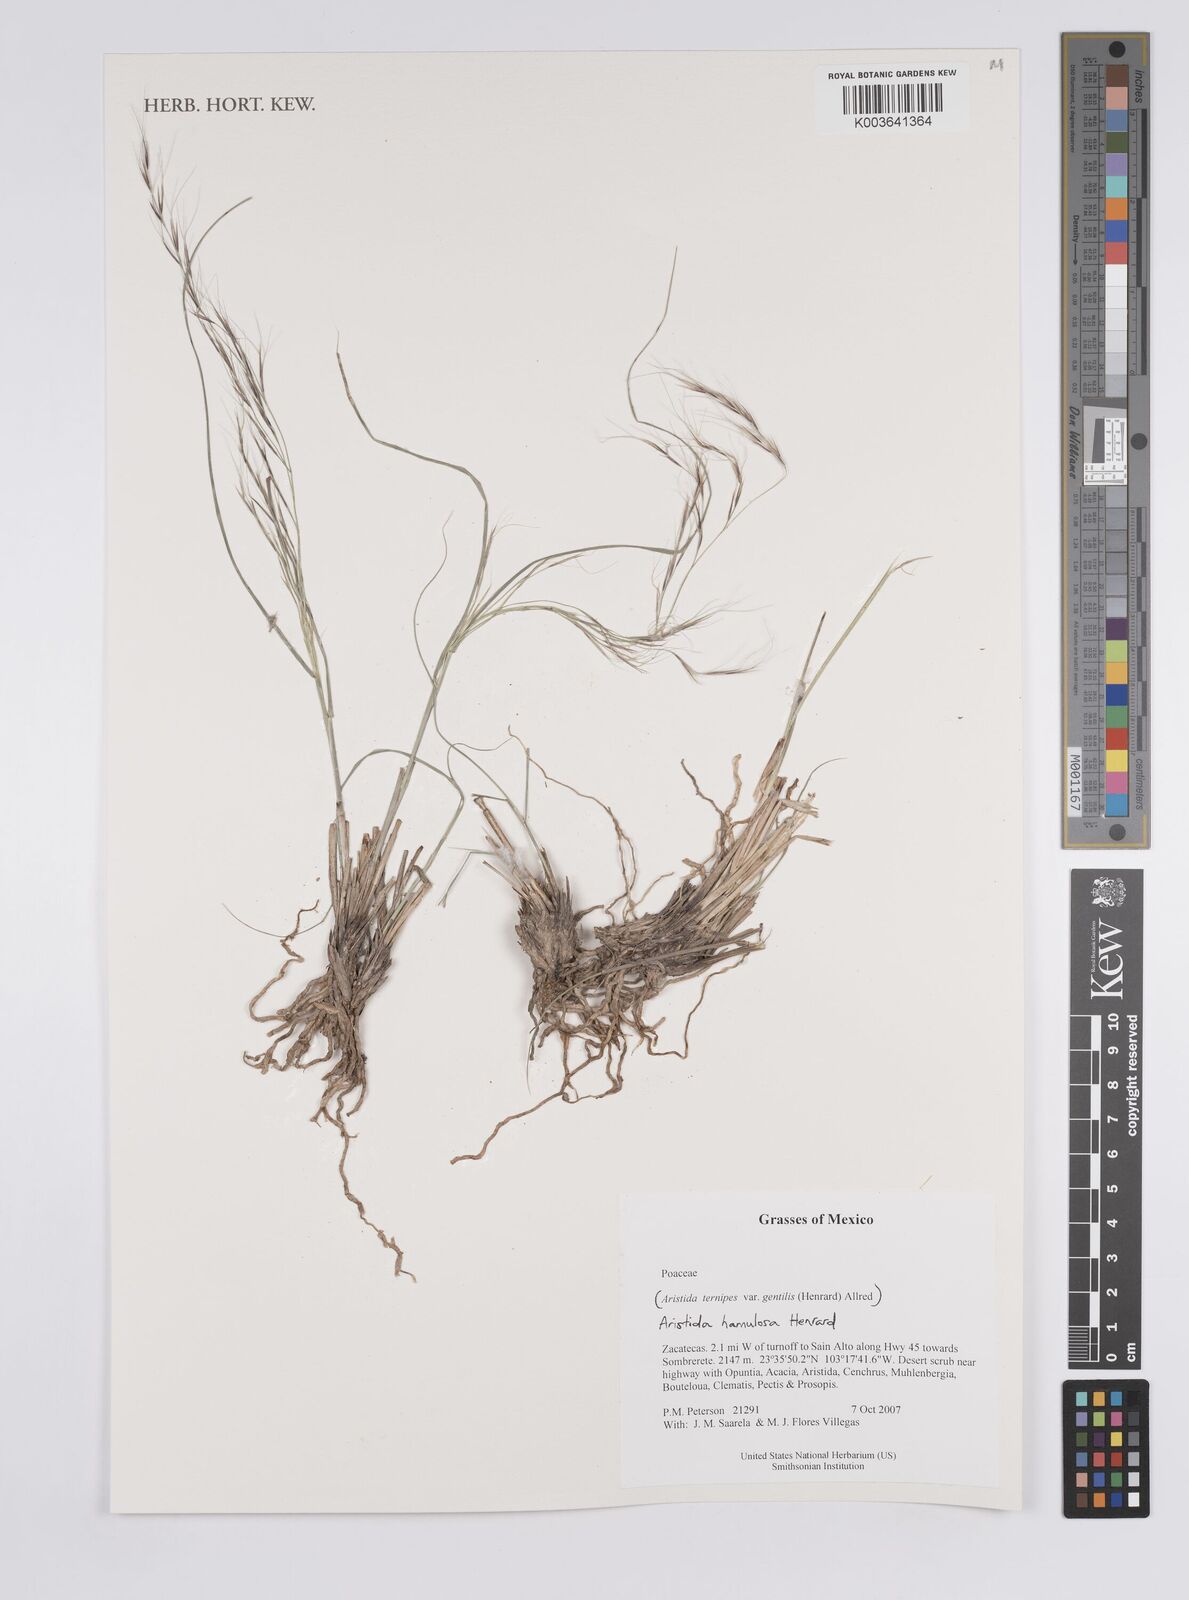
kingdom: Plantae
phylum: Tracheophyta
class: Liliopsida
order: Poales
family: Poaceae
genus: Aristida
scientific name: Aristida hamulosa
